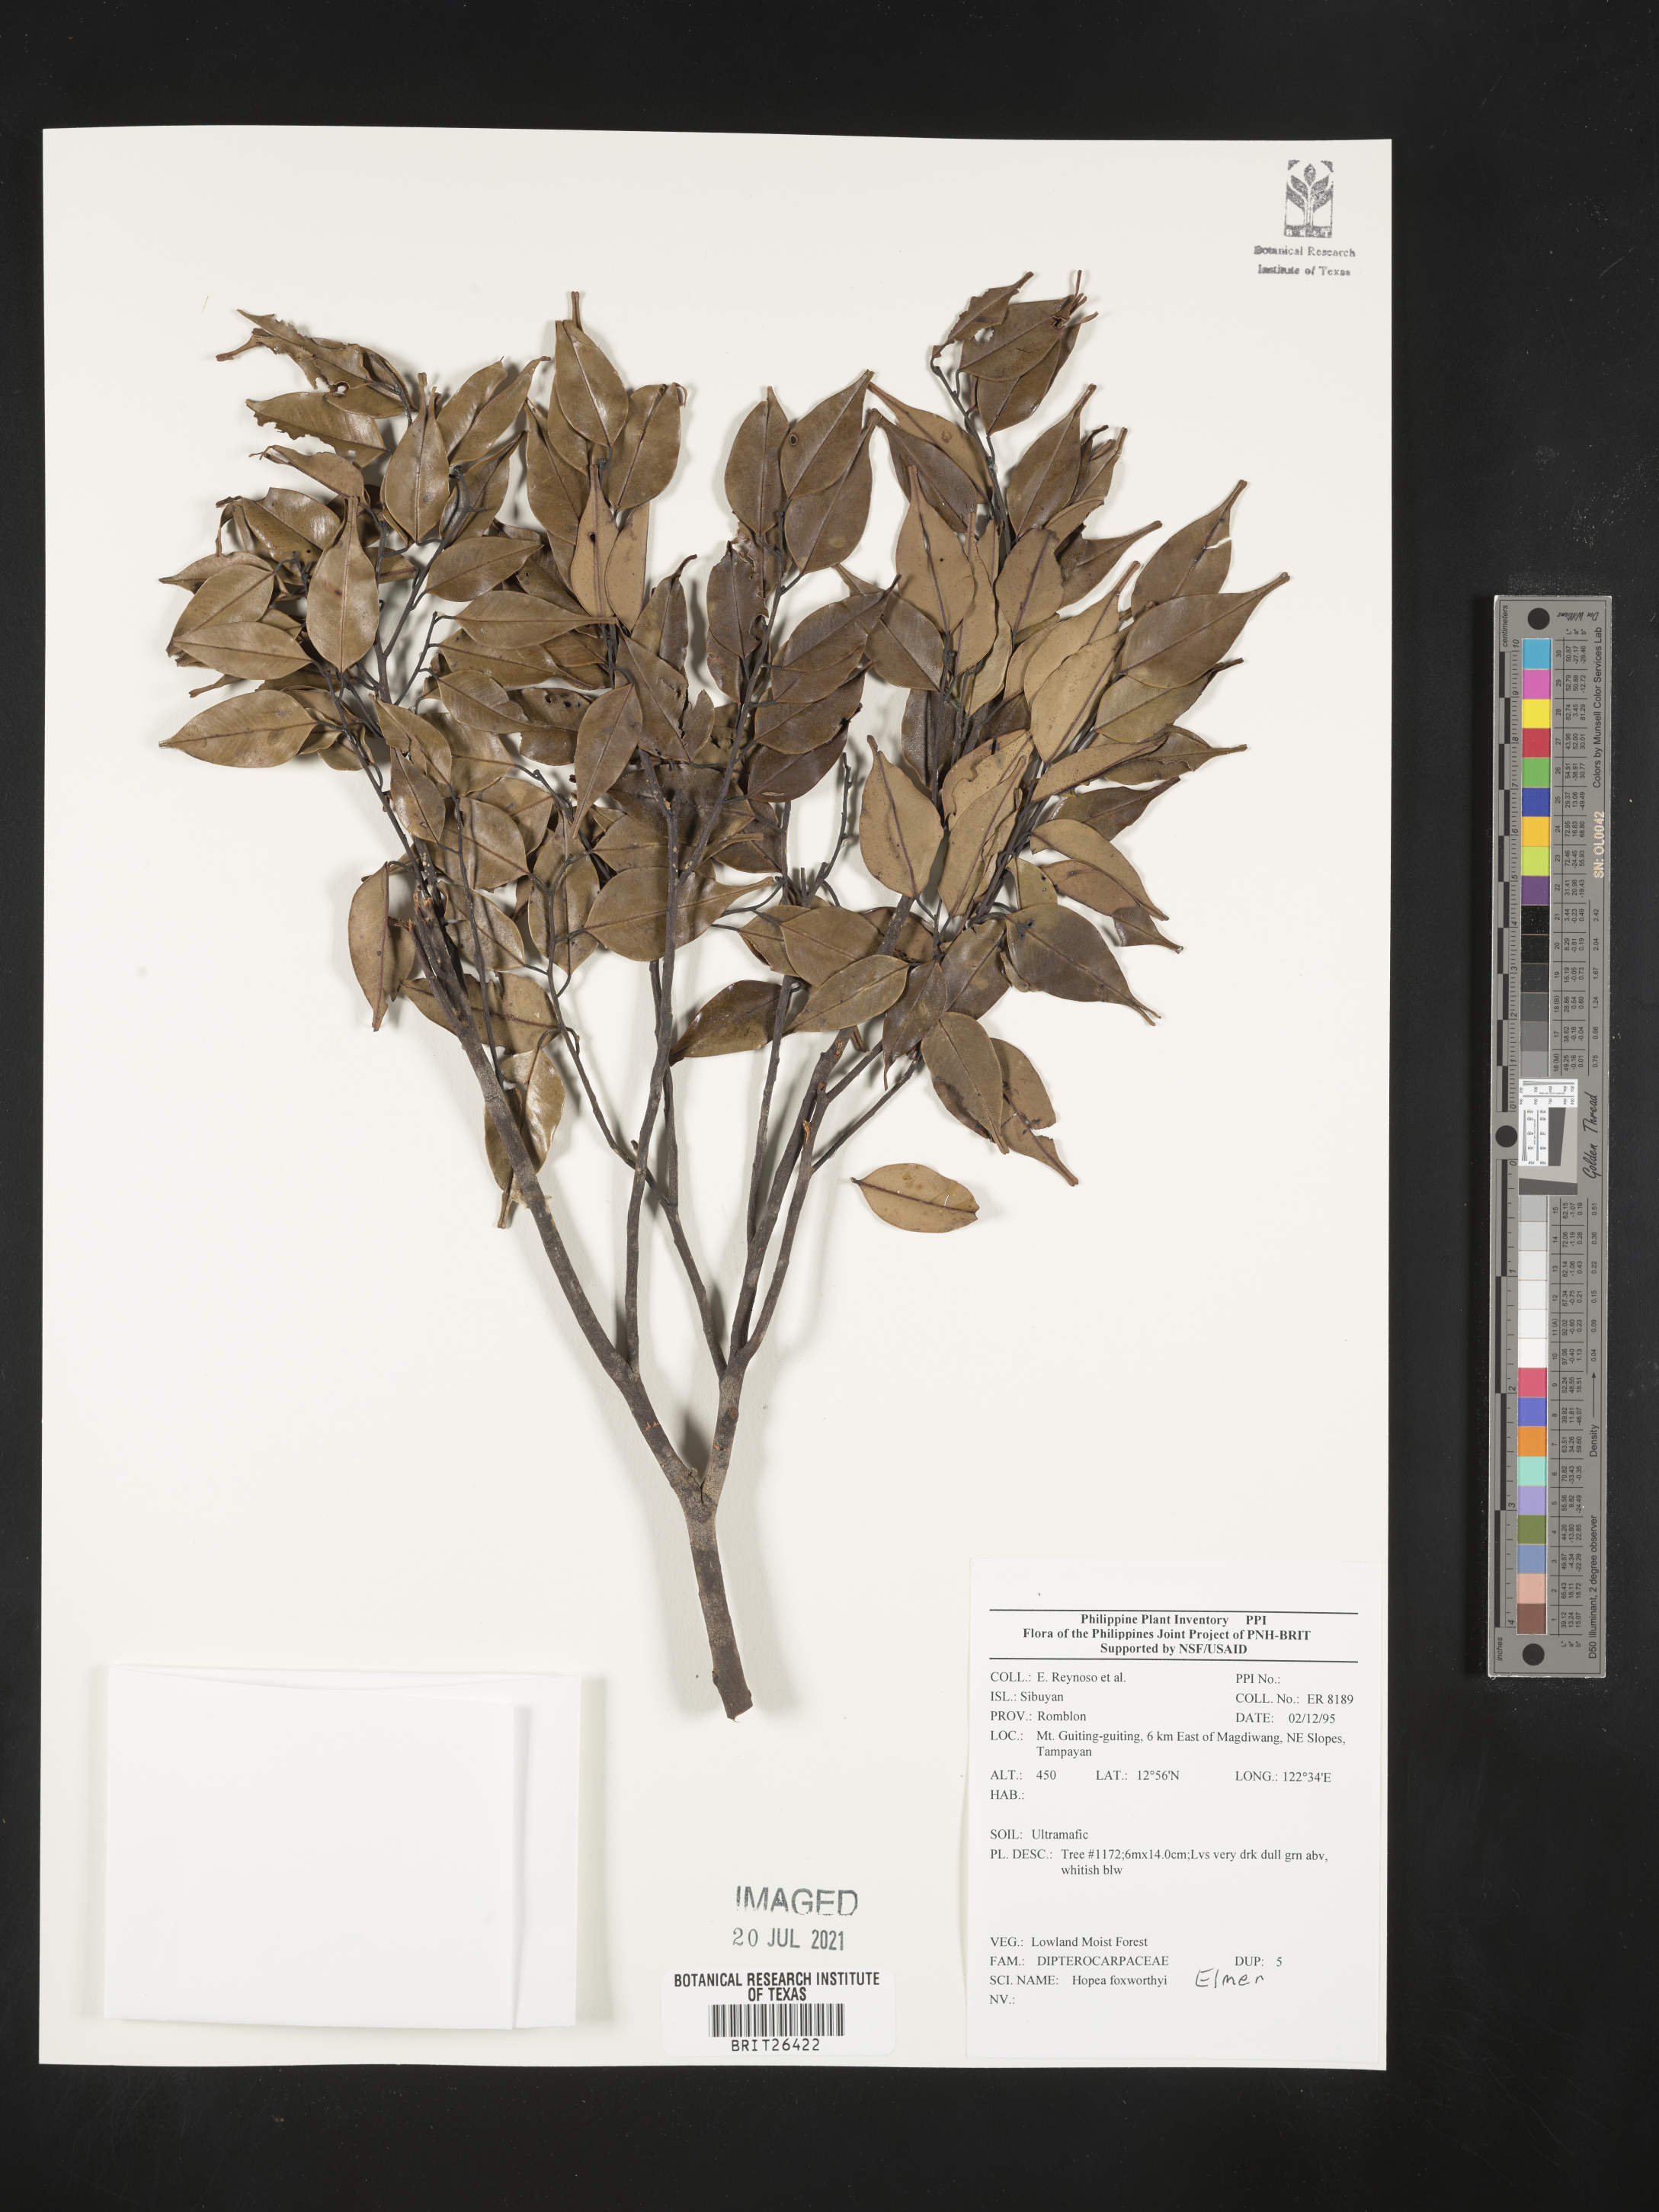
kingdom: Plantae
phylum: Tracheophyta
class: Magnoliopsida
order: Malvales
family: Dipterocarpaceae
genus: Hopea
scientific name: Hopea foxworthyi
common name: Dalingdingan
